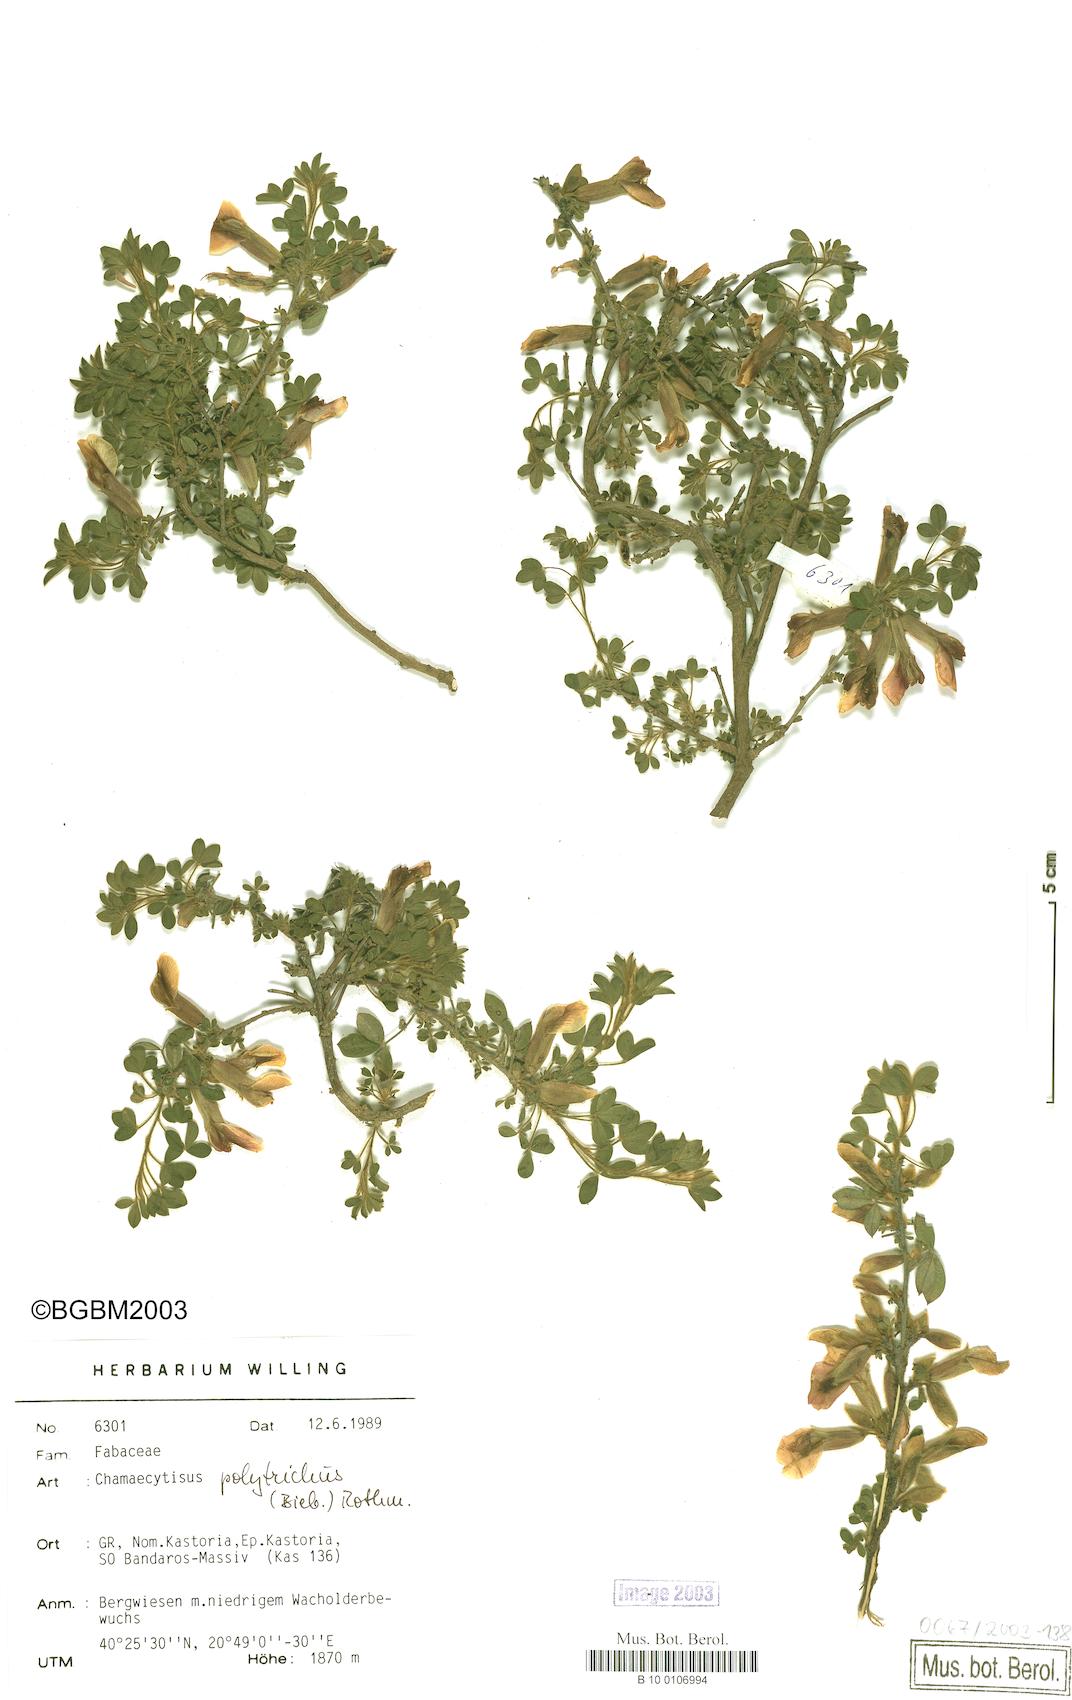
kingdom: Plantae
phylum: Tracheophyta
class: Magnoliopsida
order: Fabales
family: Fabaceae
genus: Chamaecytisus
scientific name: Chamaecytisus hirsutus
